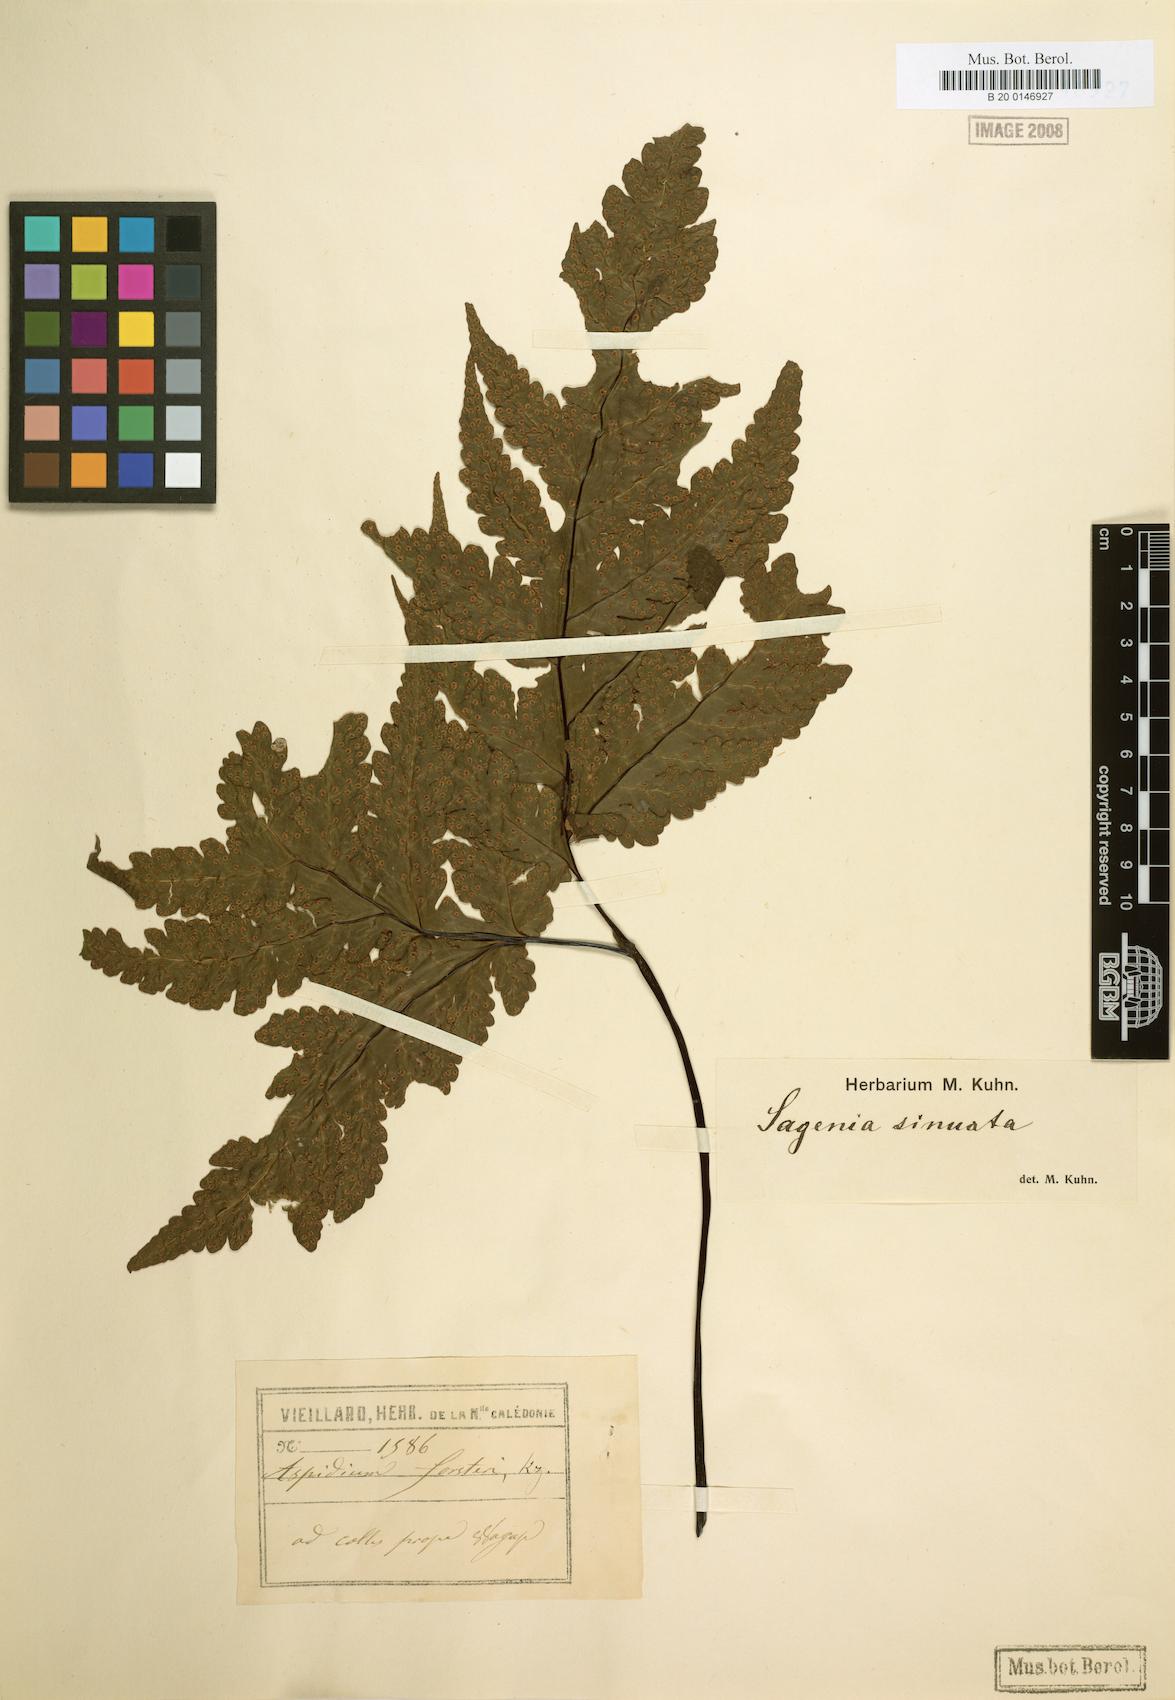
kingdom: Plantae
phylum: Tracheophyta
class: Polypodiopsida
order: Polypodiales
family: Tectariaceae
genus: Tectaria
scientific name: Tectaria sinuata
